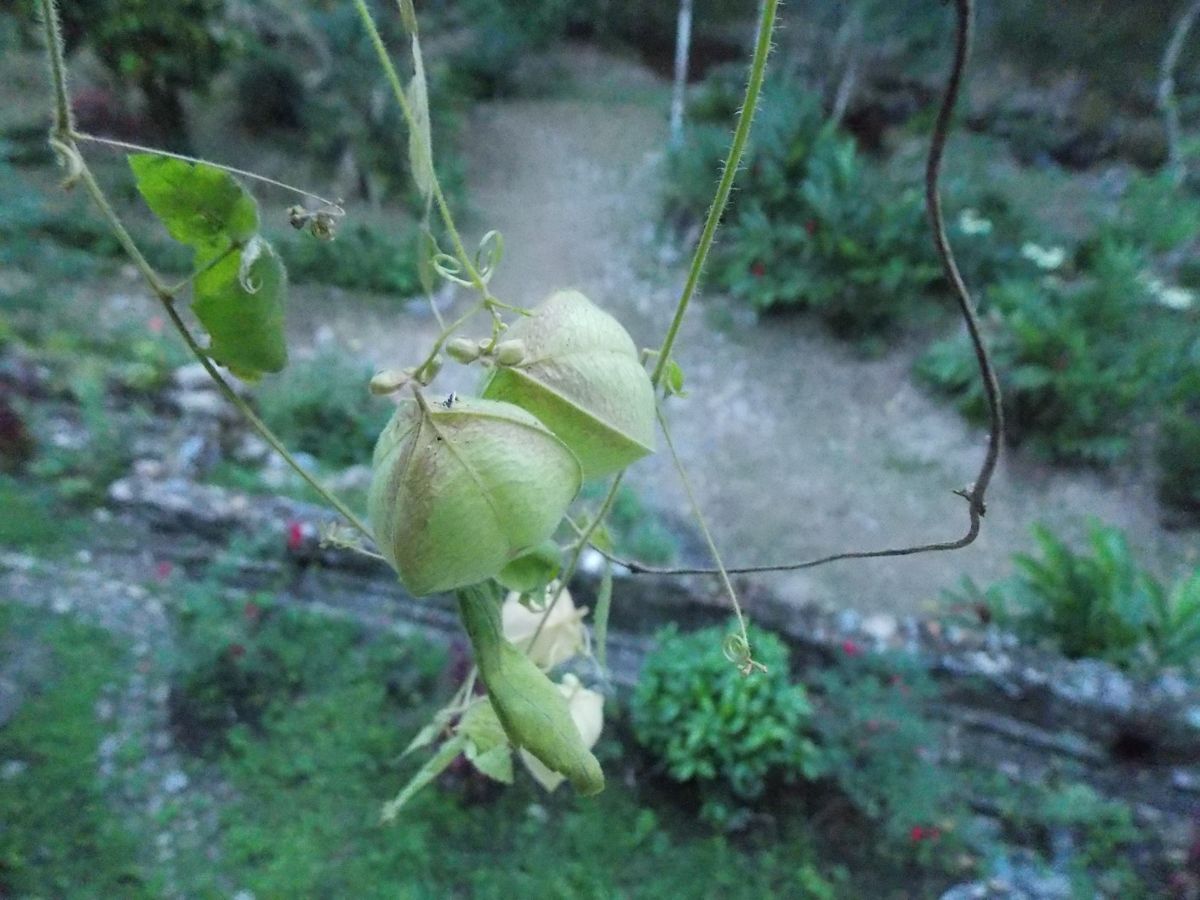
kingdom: Plantae
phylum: Tracheophyta
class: Magnoliopsida
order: Sapindales
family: Sapindaceae
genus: Cardiospermum
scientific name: Cardiospermum halicacabum
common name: Balloon vine
